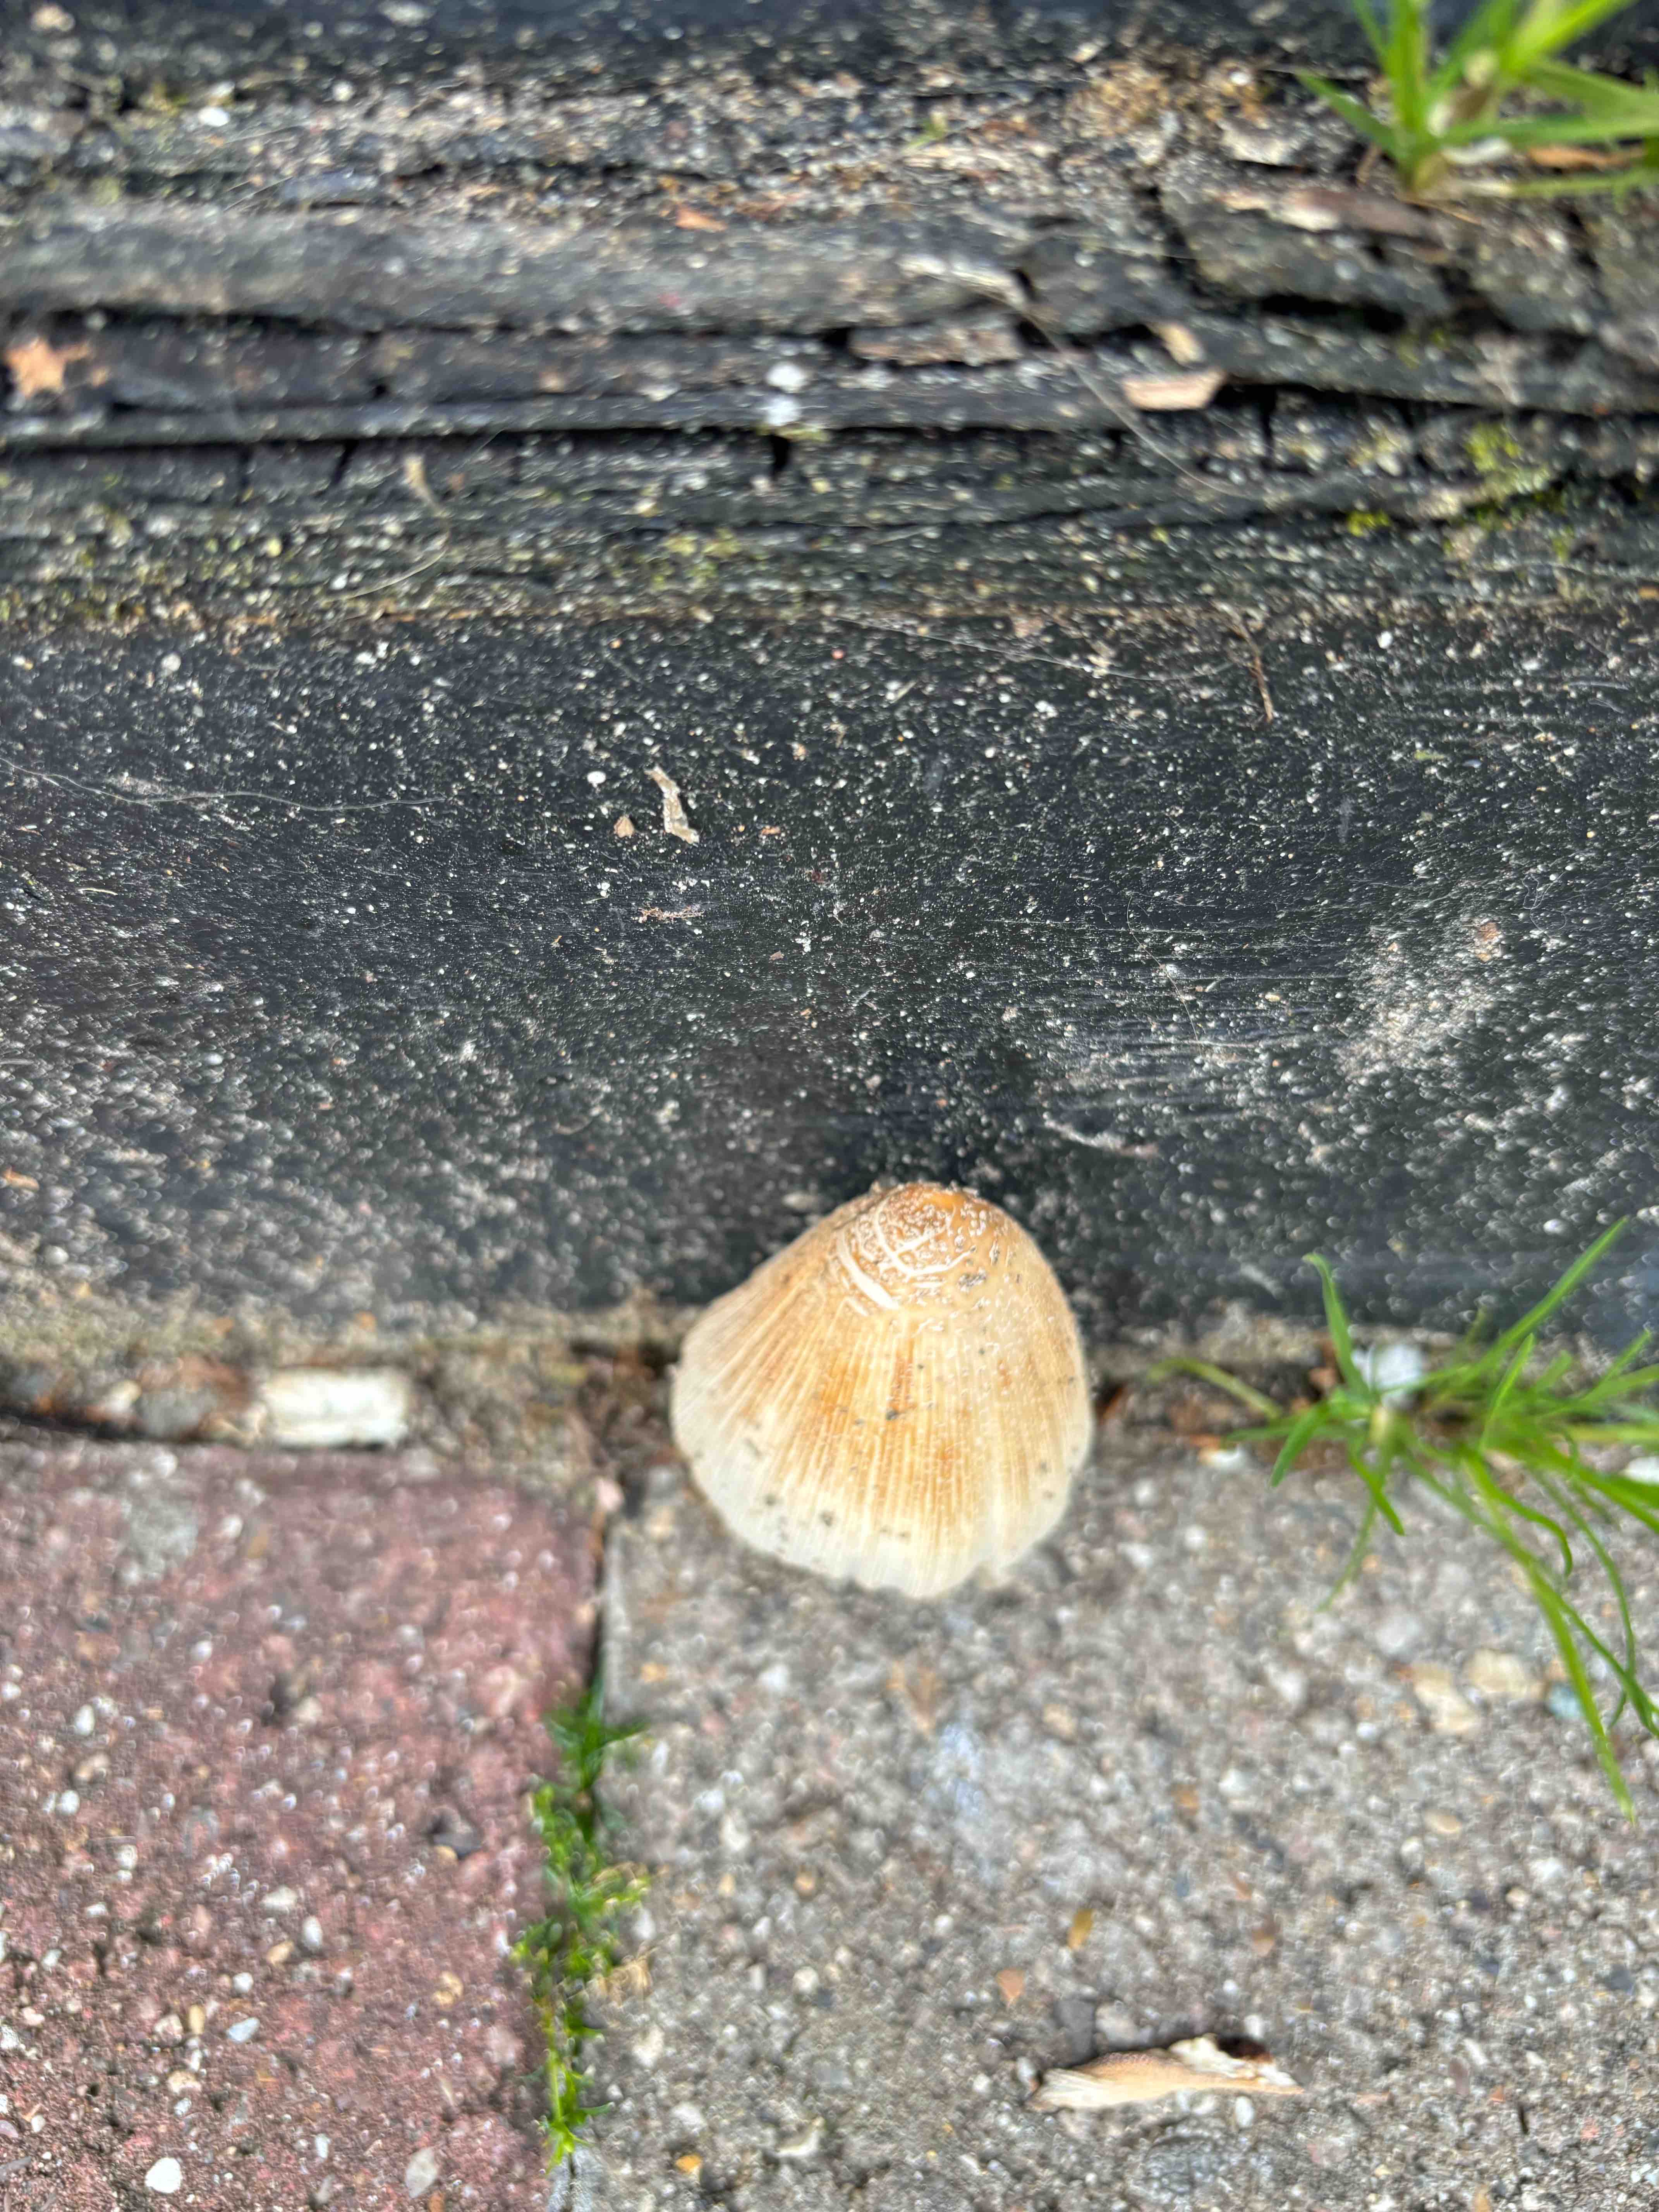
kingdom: Fungi
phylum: Basidiomycota
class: Agaricomycetes
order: Agaricales
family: Psathyrellaceae
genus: Coprinellus
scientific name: Coprinellus
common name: blækhat
